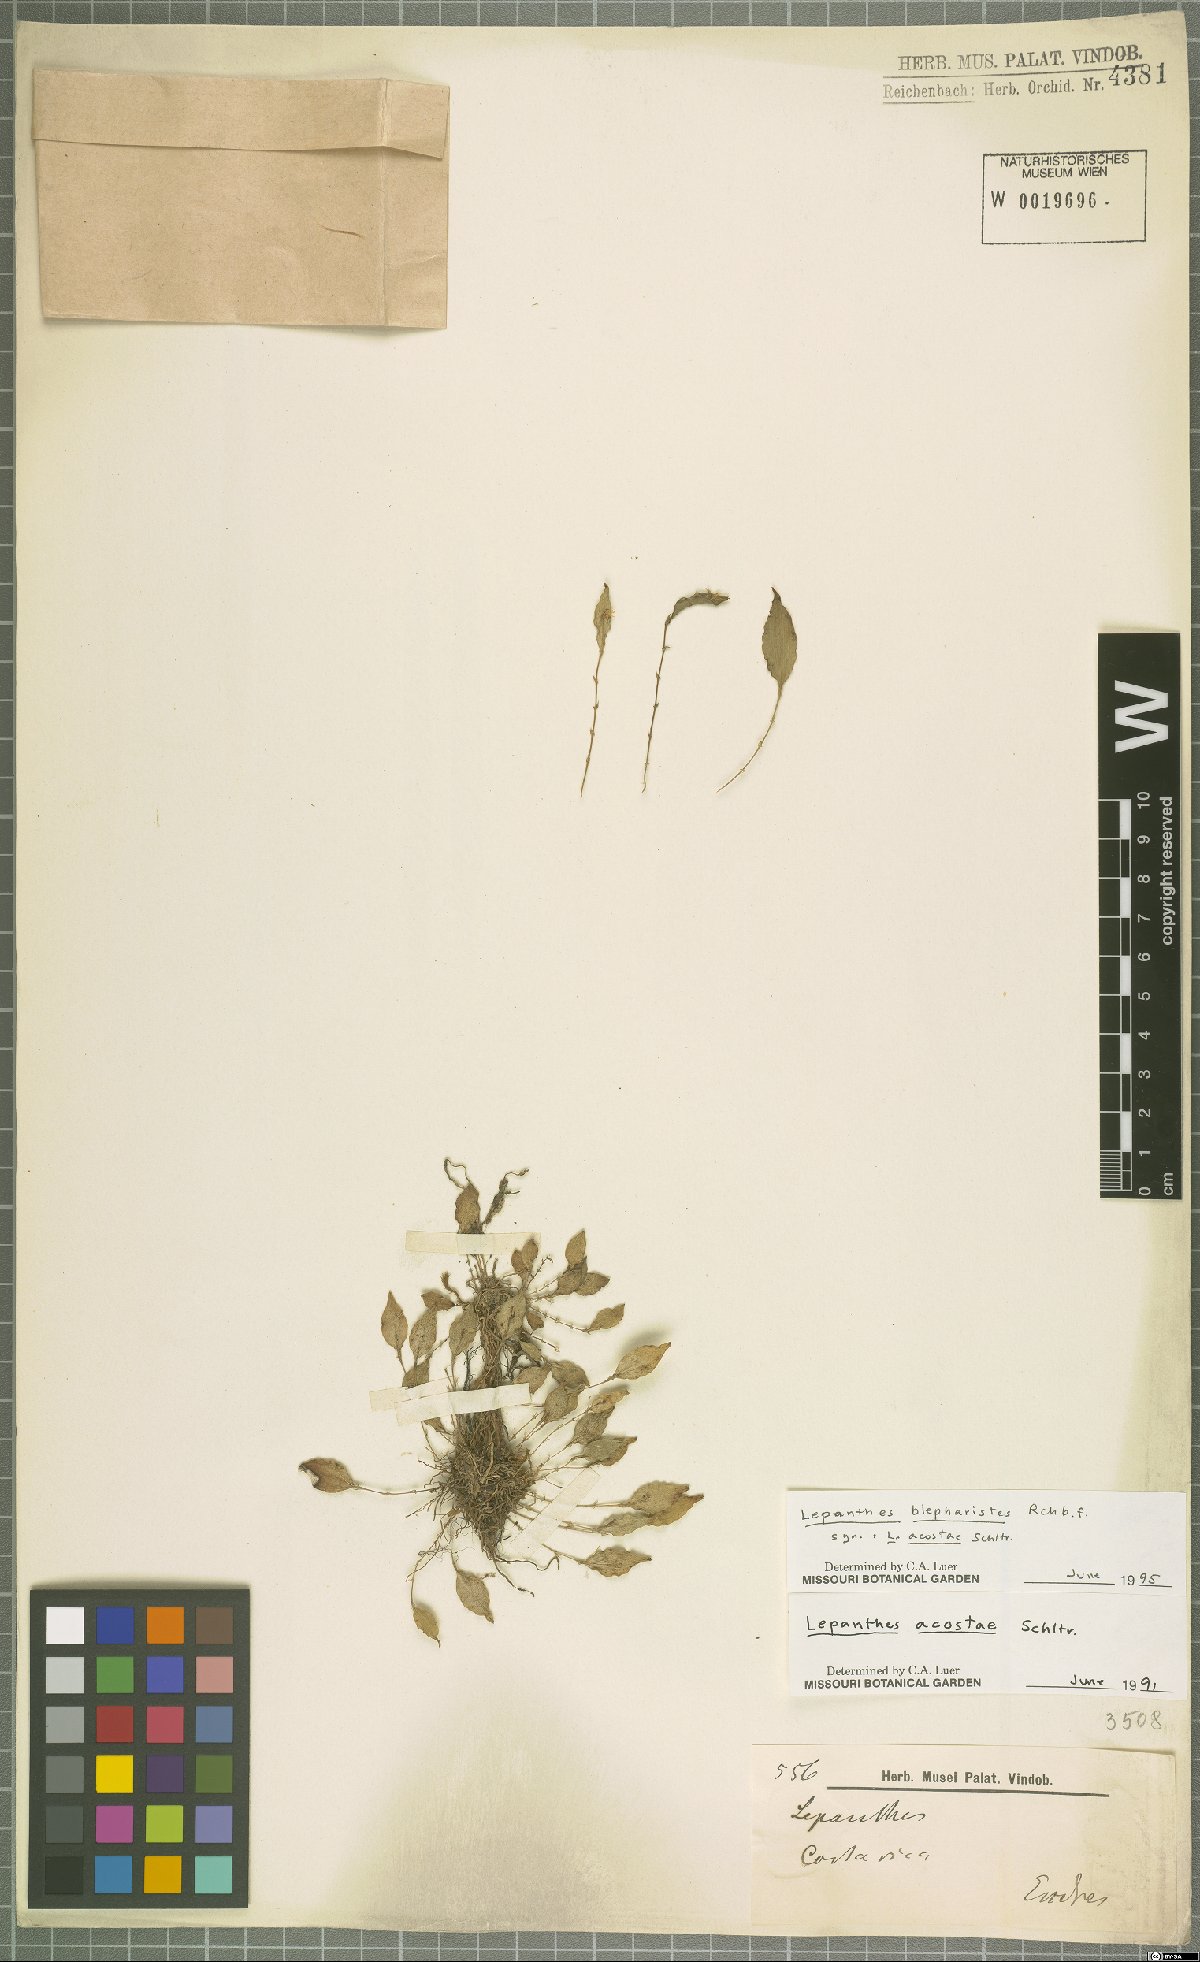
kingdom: Plantae
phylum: Tracheophyta
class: Liliopsida
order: Asparagales
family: Orchidaceae
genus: Lepanthes
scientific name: Lepanthes blepharistes
